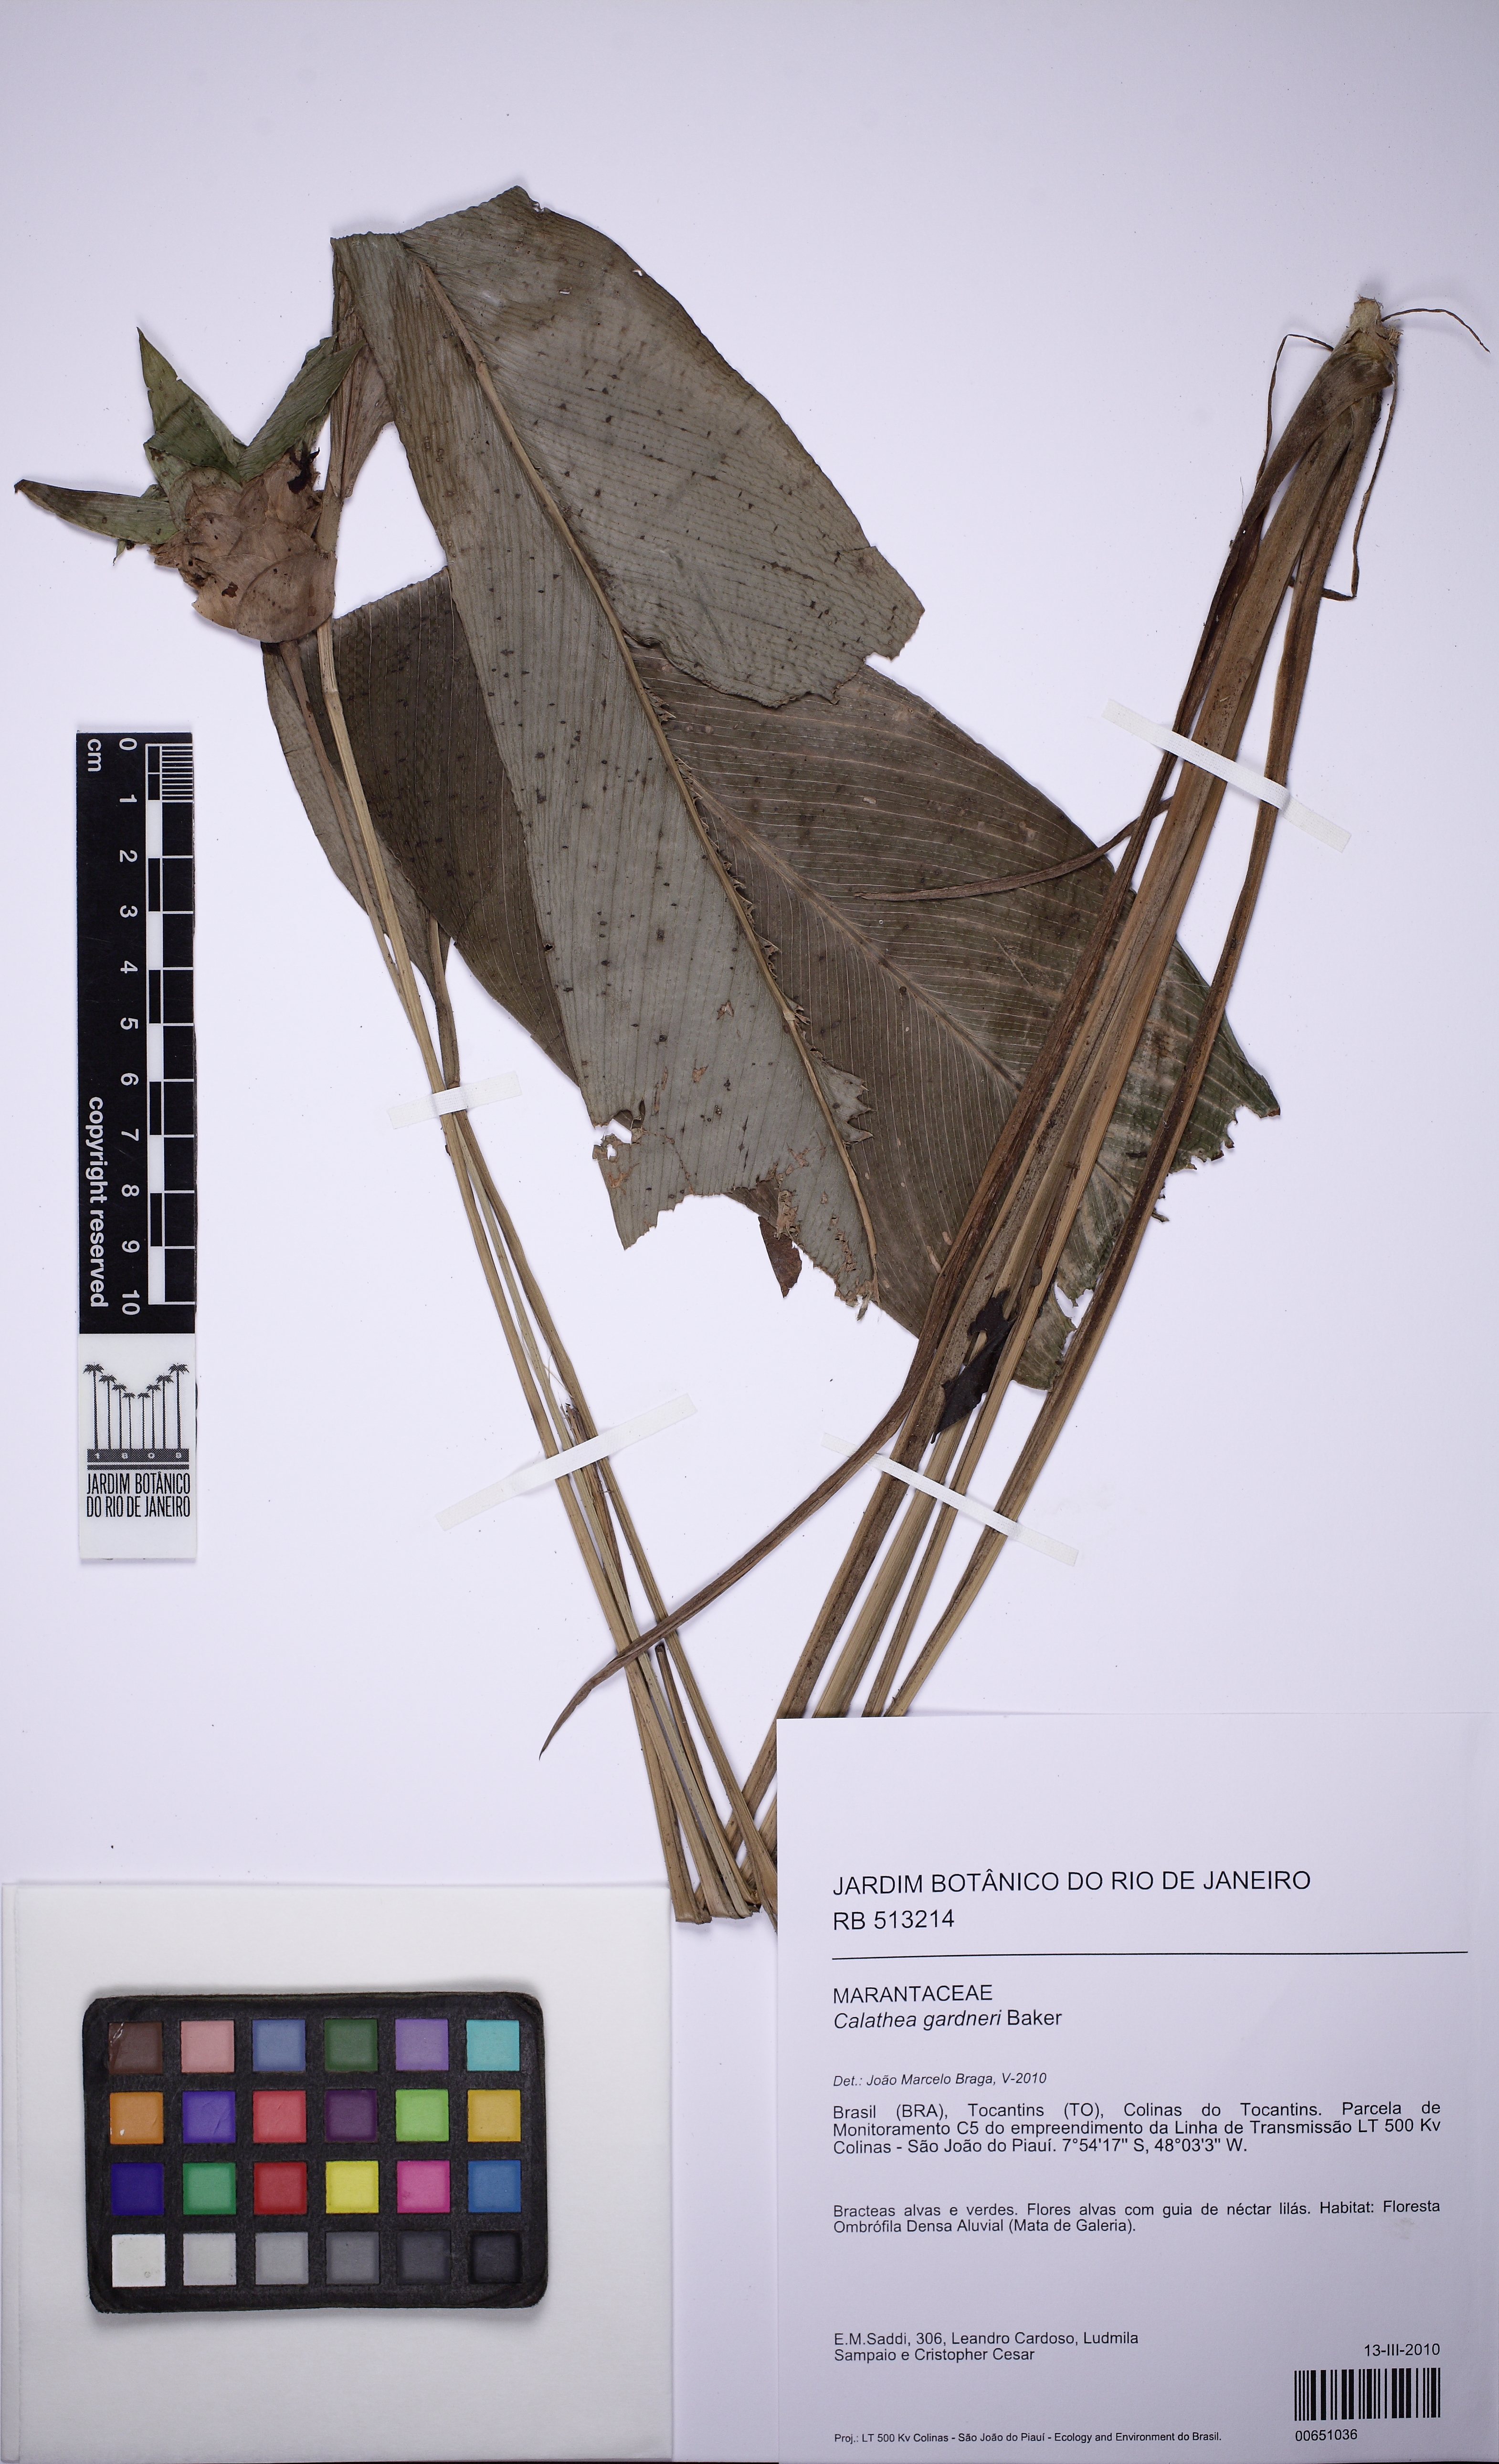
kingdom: Plantae
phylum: Tracheophyta
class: Liliopsida
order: Zingiberales
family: Marantaceae
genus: Goeppertia
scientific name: Goeppertia gardneri
